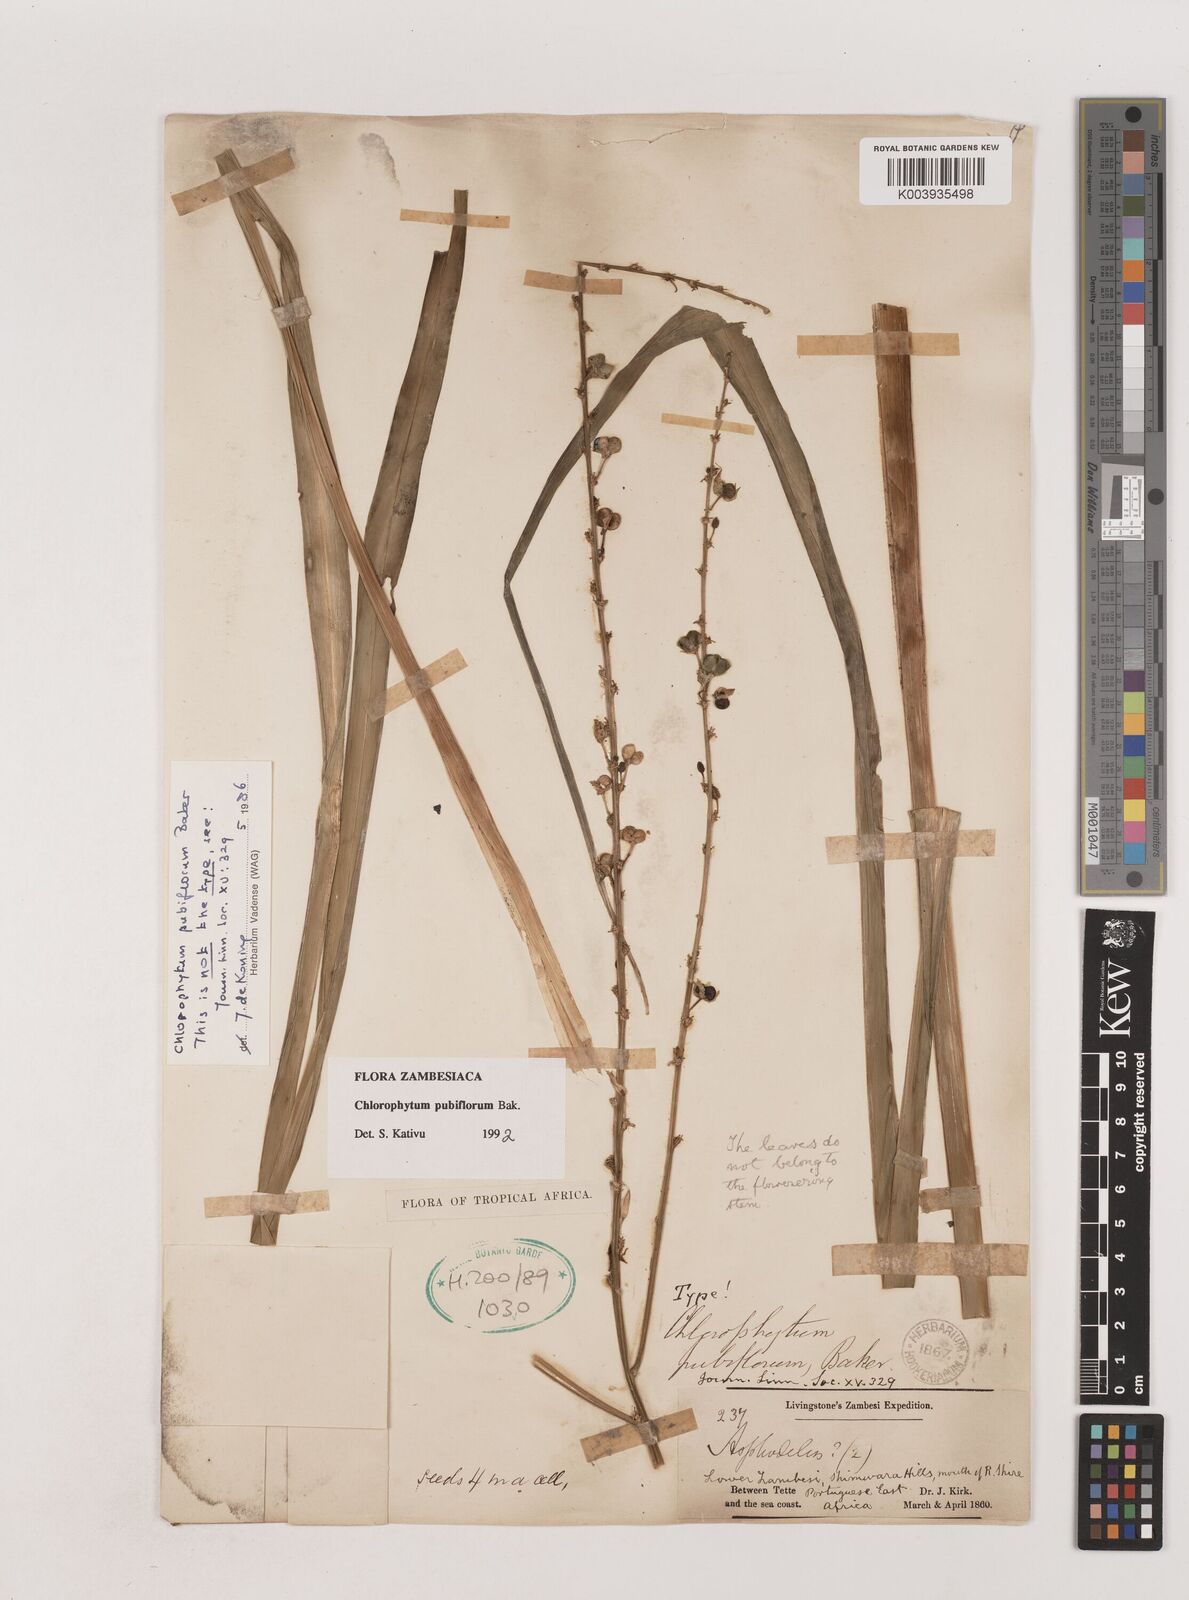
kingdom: Plantae
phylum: Tracheophyta
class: Liliopsida
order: Asparagales
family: Asparagaceae
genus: Chlorophytum
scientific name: Chlorophytum pubiflorum
